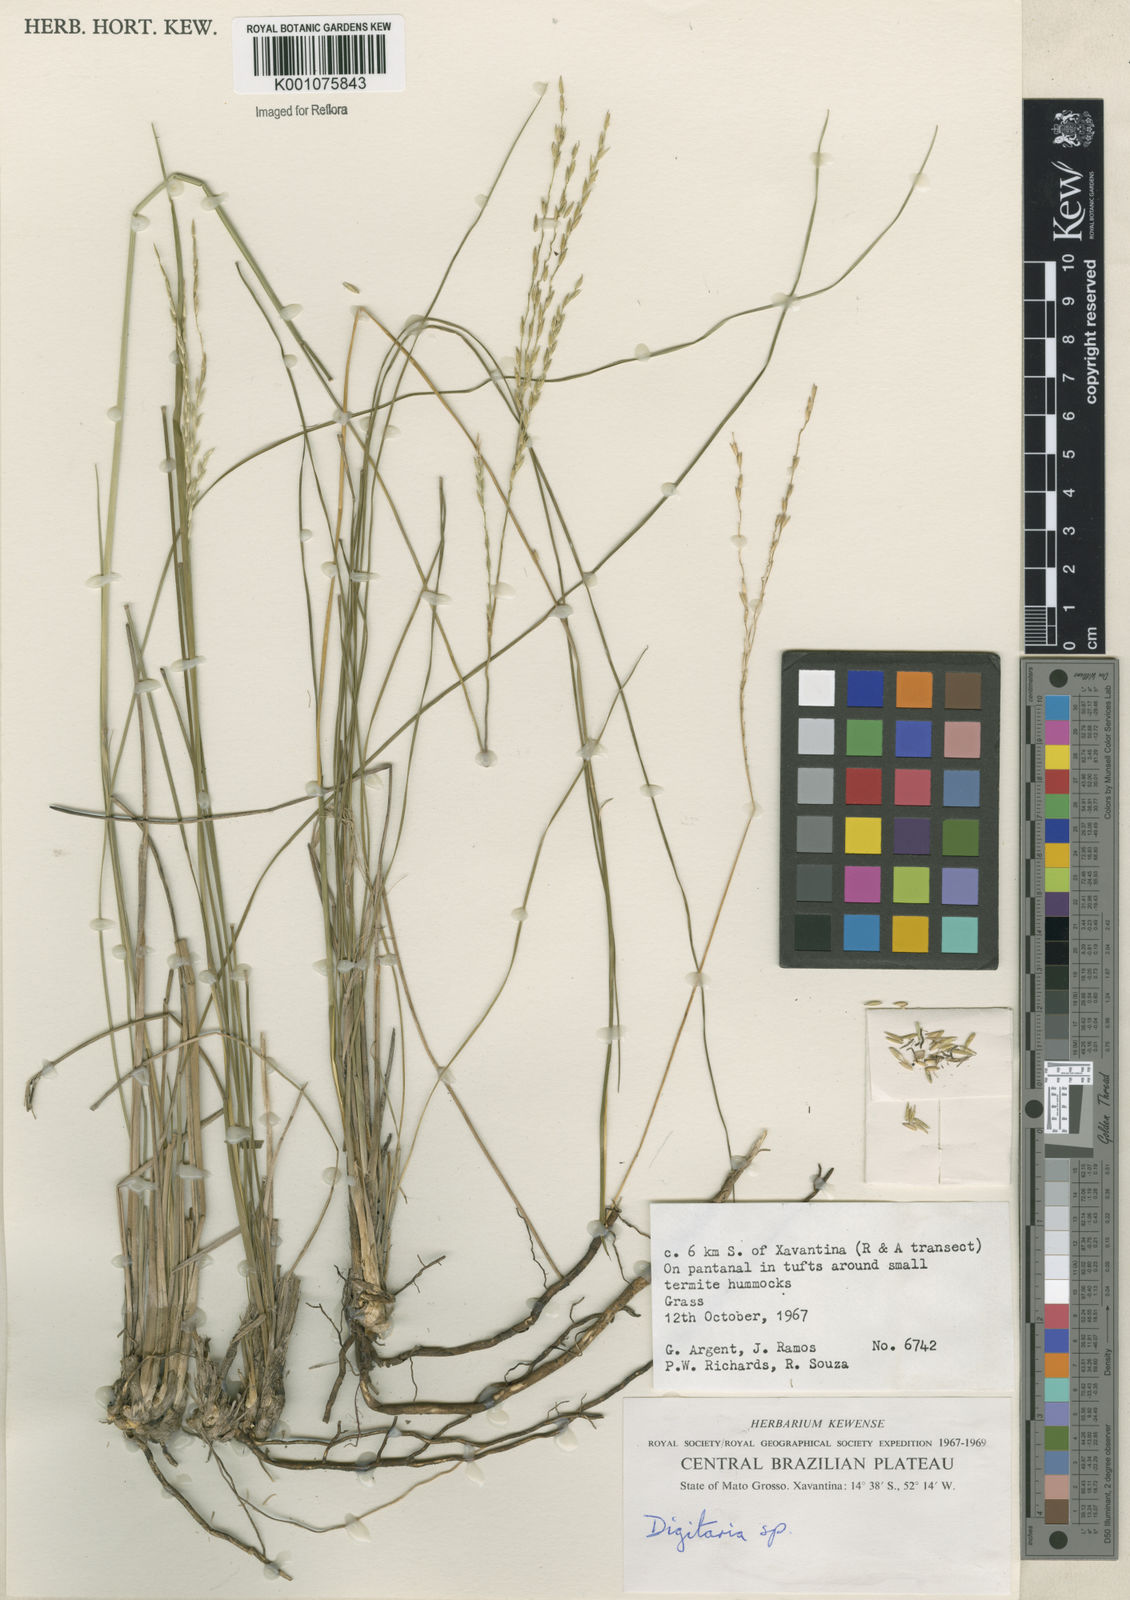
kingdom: Plantae
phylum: Tracheophyta
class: Liliopsida
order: Poales
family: Poaceae
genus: Digitaria
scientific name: Digitaria
